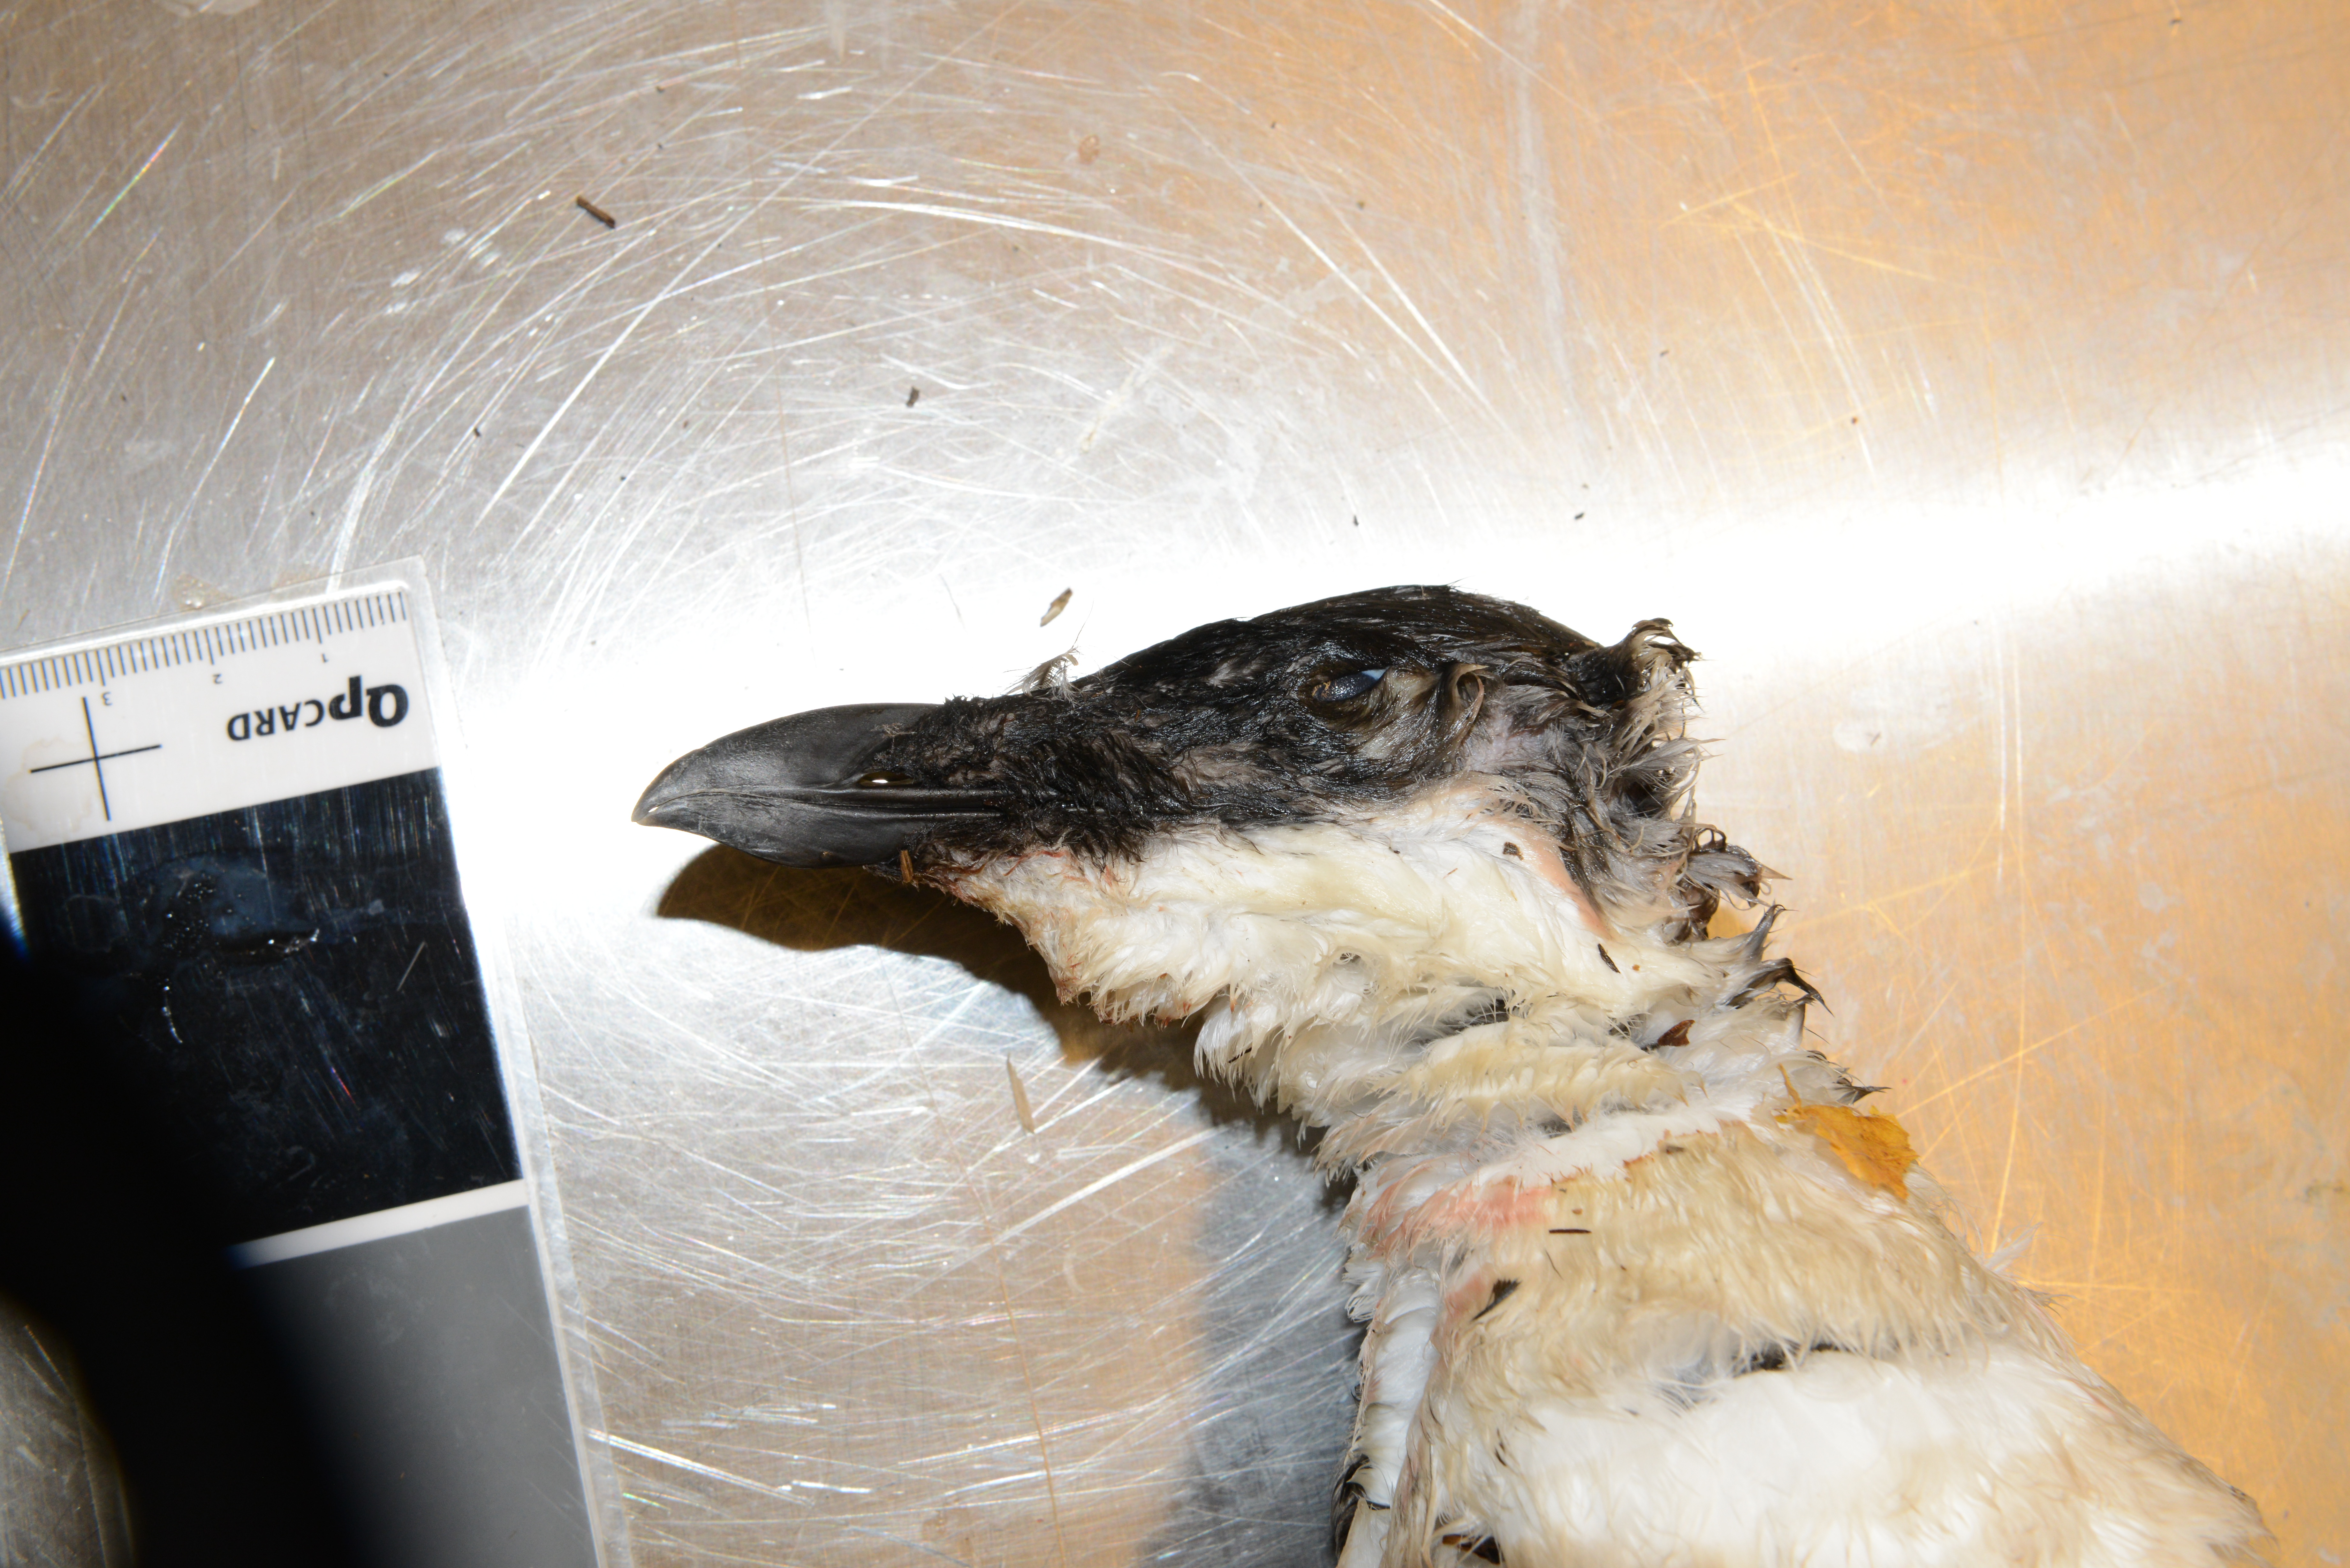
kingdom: Animalia
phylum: Chordata
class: Aves
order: Charadriiformes
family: Alcidae
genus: Alca
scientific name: Alca torda
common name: Razorbill
